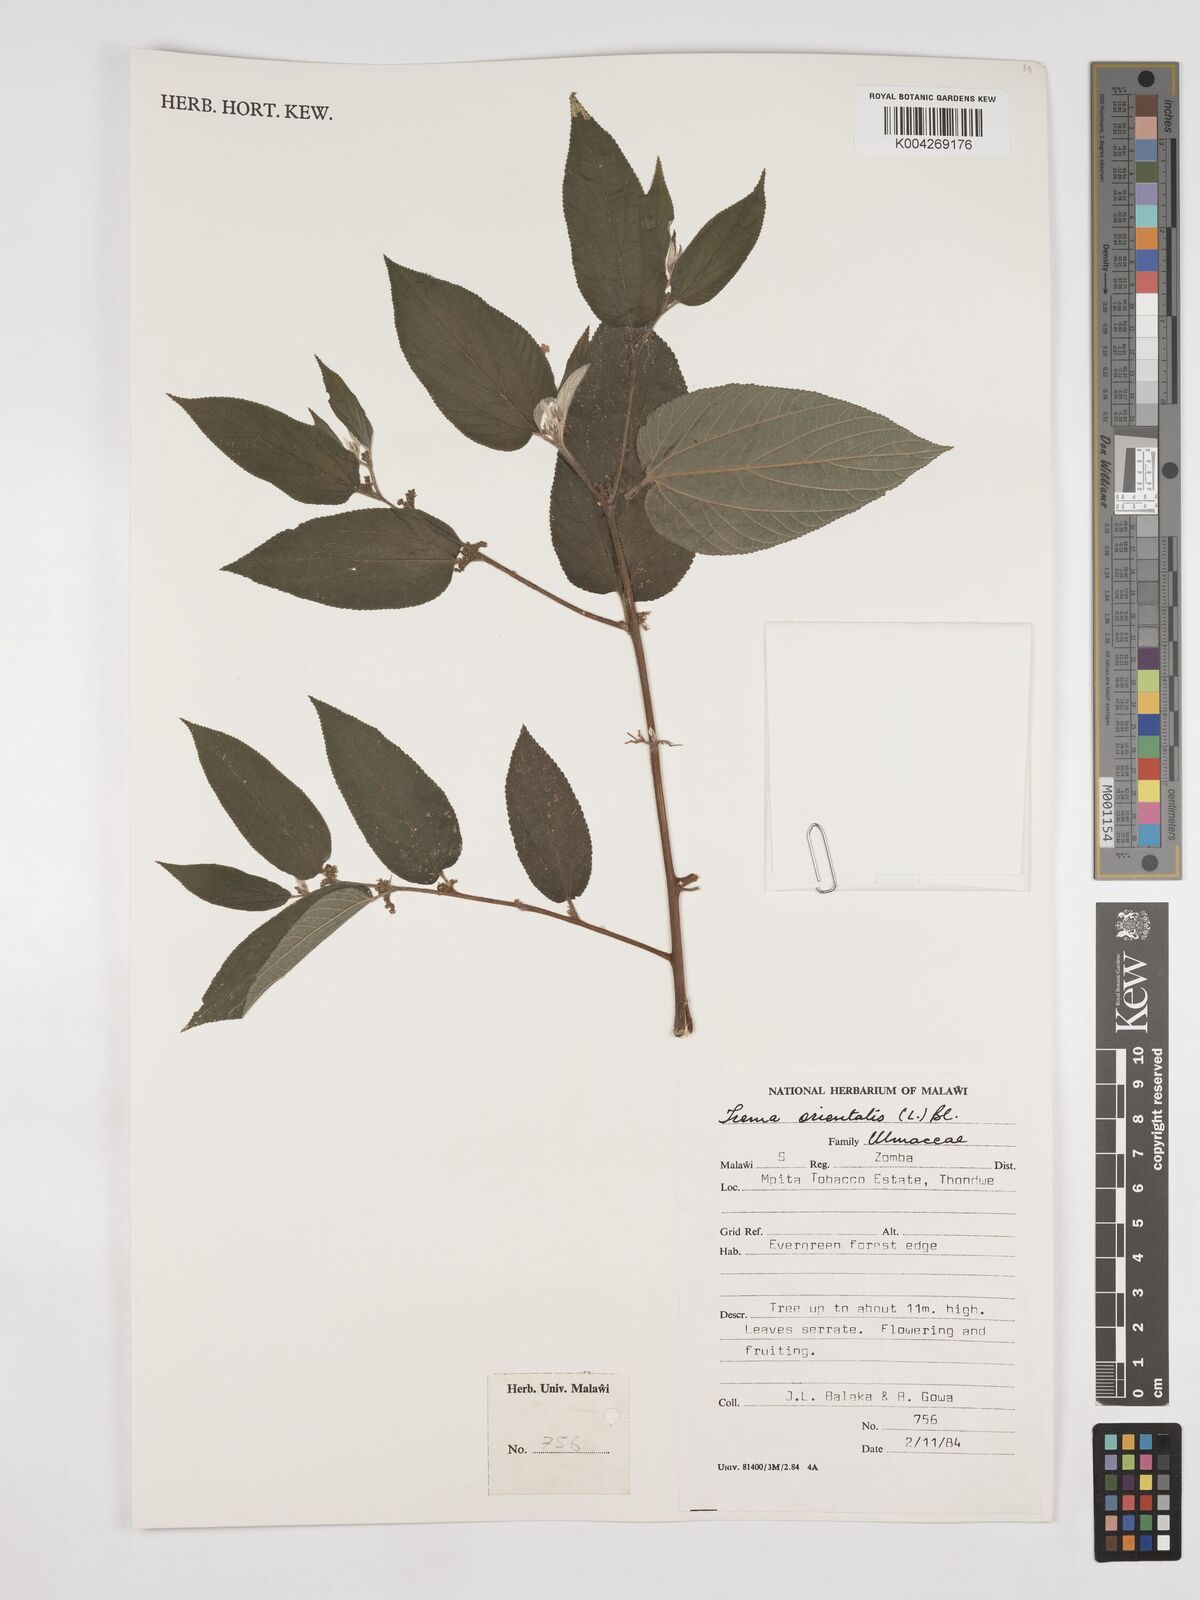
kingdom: Plantae
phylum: Tracheophyta
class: Magnoliopsida
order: Rosales
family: Cannabaceae
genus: Trema
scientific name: Trema orientale
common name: Indian charcoal tree
